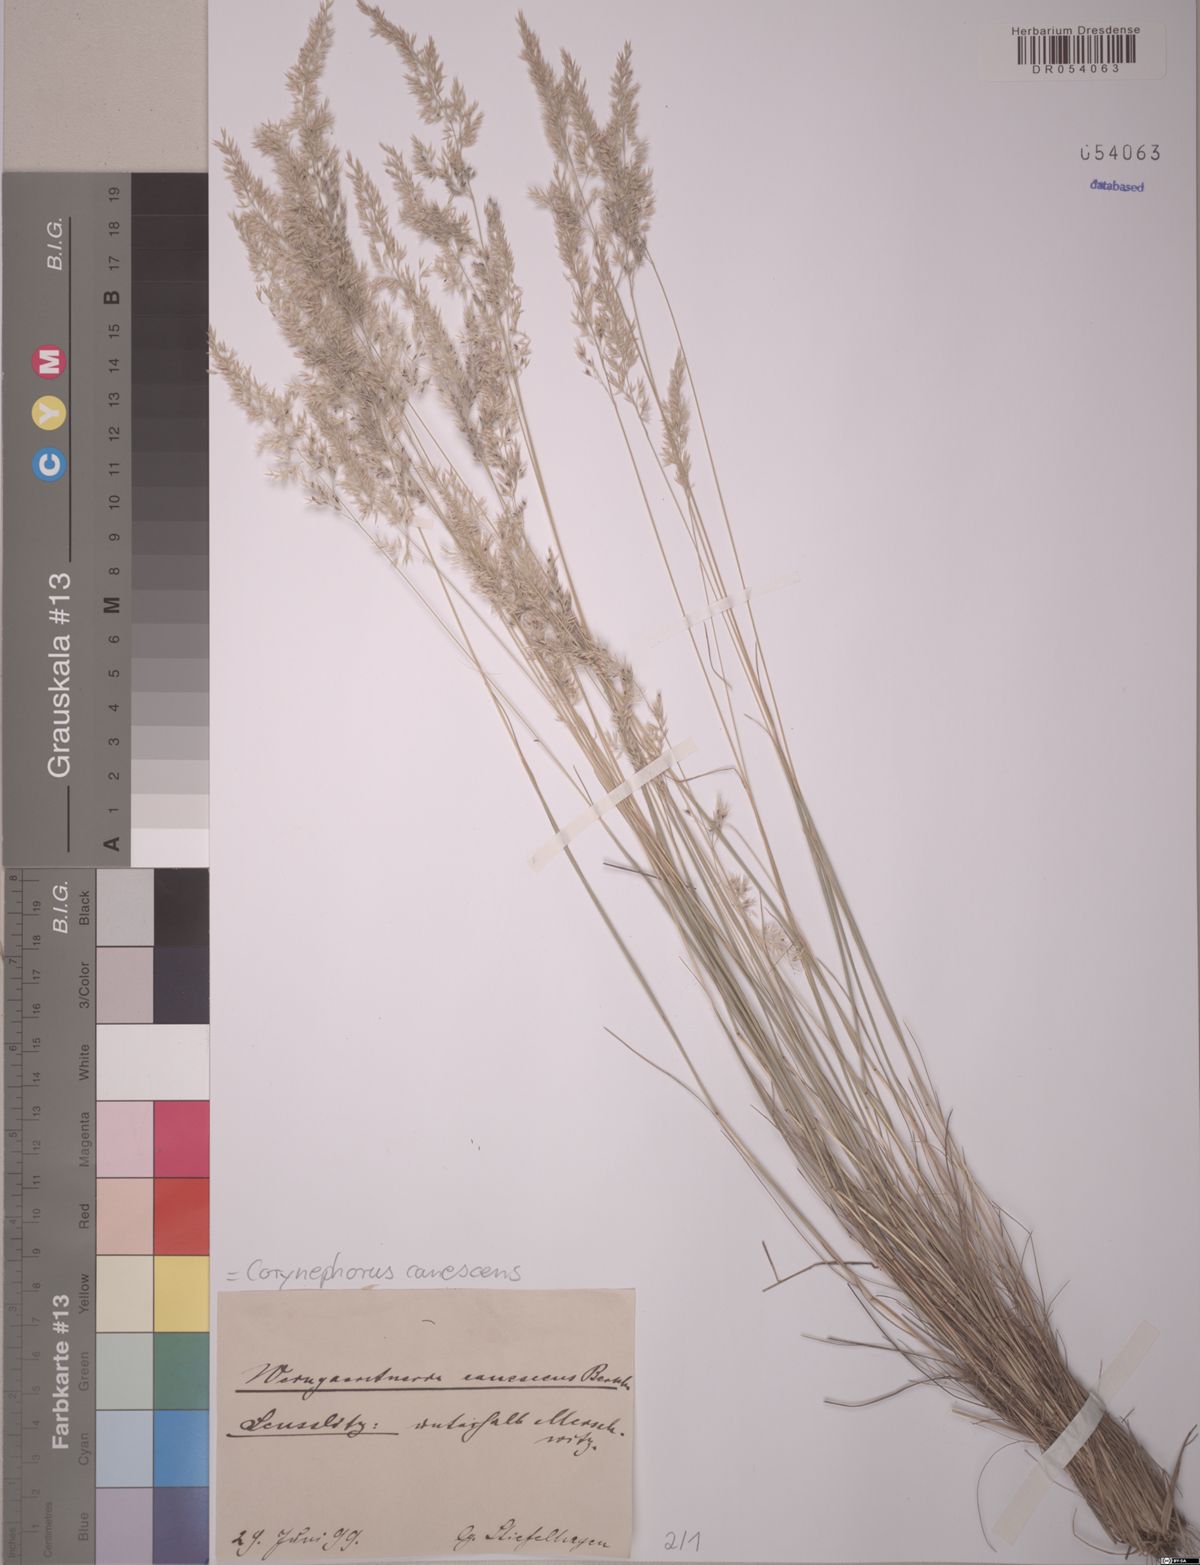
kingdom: Plantae
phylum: Tracheophyta
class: Liliopsida
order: Poales
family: Poaceae
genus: Corynephorus
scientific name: Corynephorus canescens
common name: Grey hair-grass
